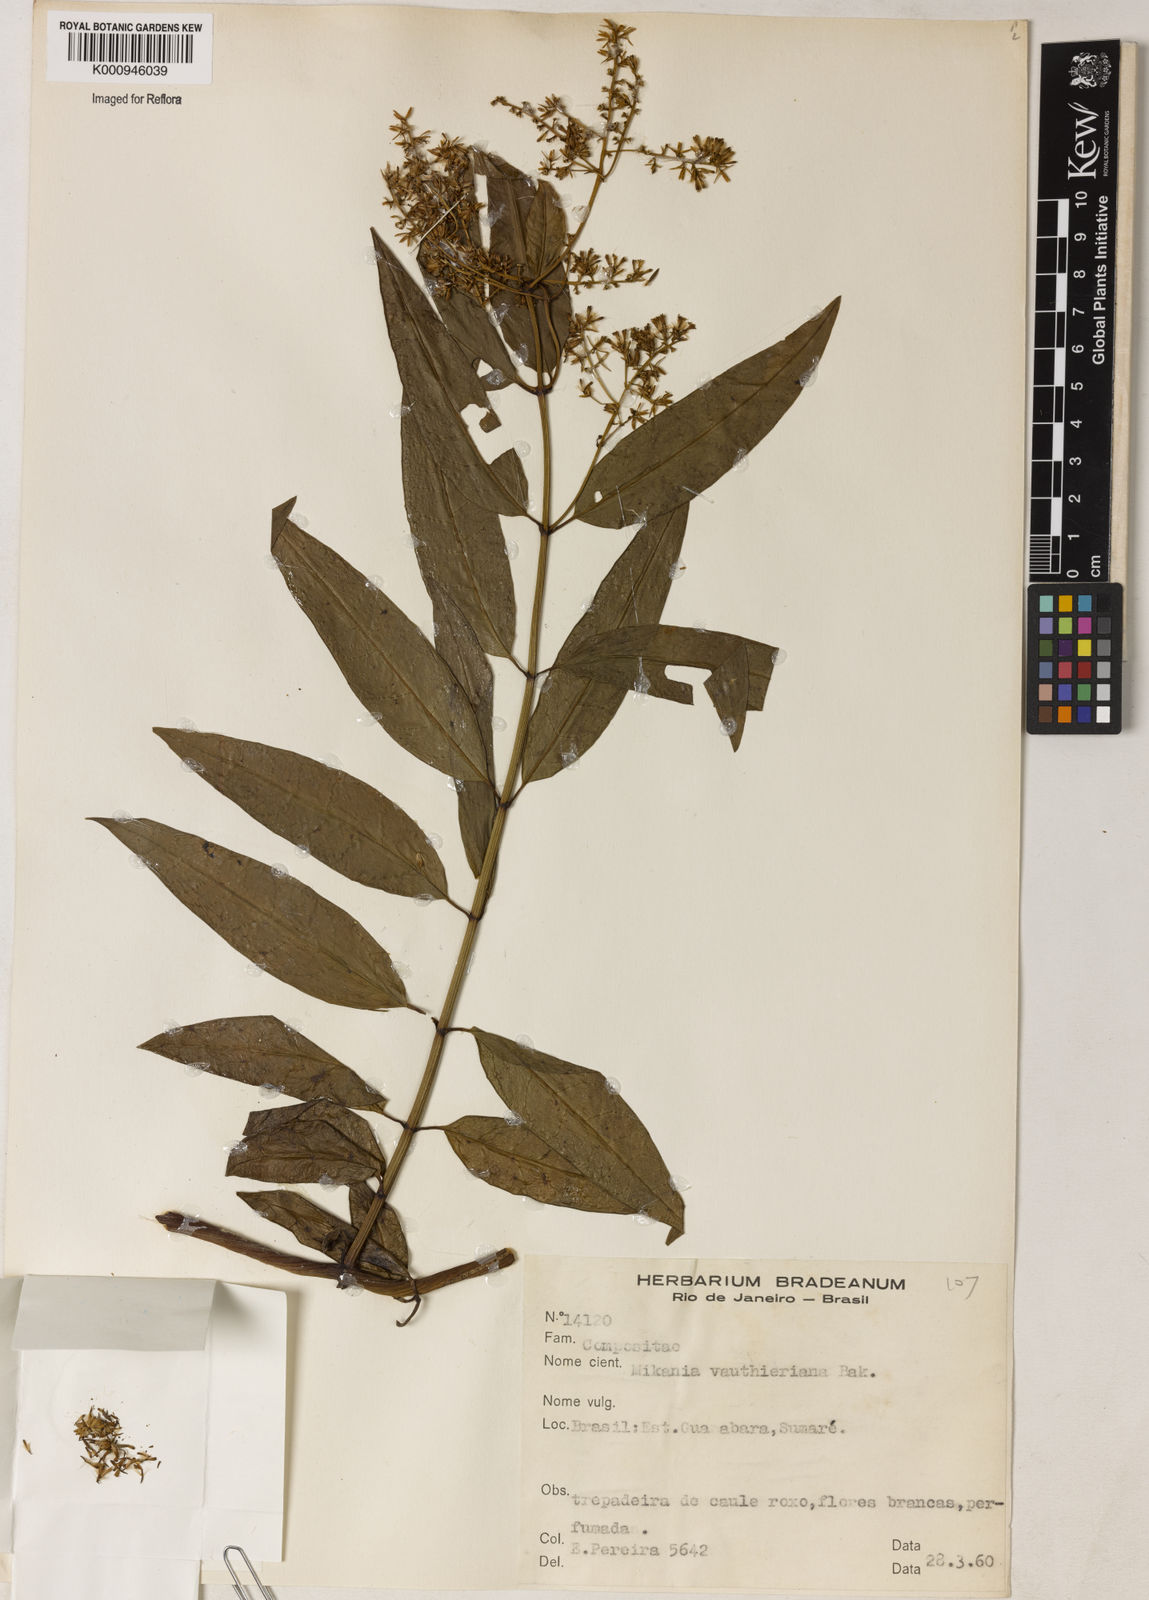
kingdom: Plantae
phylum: Tracheophyta
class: Magnoliopsida
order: Asterales
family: Asteraceae
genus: Mikania
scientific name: Mikania vauthieriana
